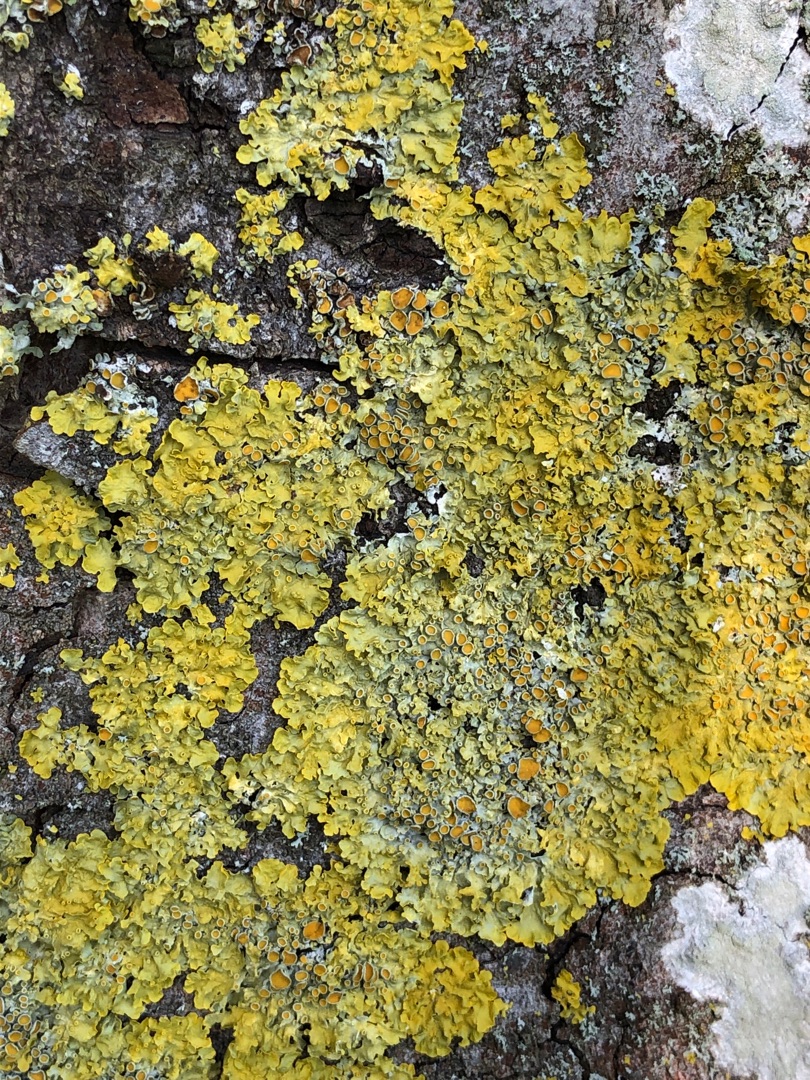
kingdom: Fungi
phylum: Ascomycota
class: Lecanoromycetes
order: Teloschistales
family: Teloschistaceae
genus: Xanthoria
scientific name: Xanthoria parietina
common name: Almindelig væggelav
